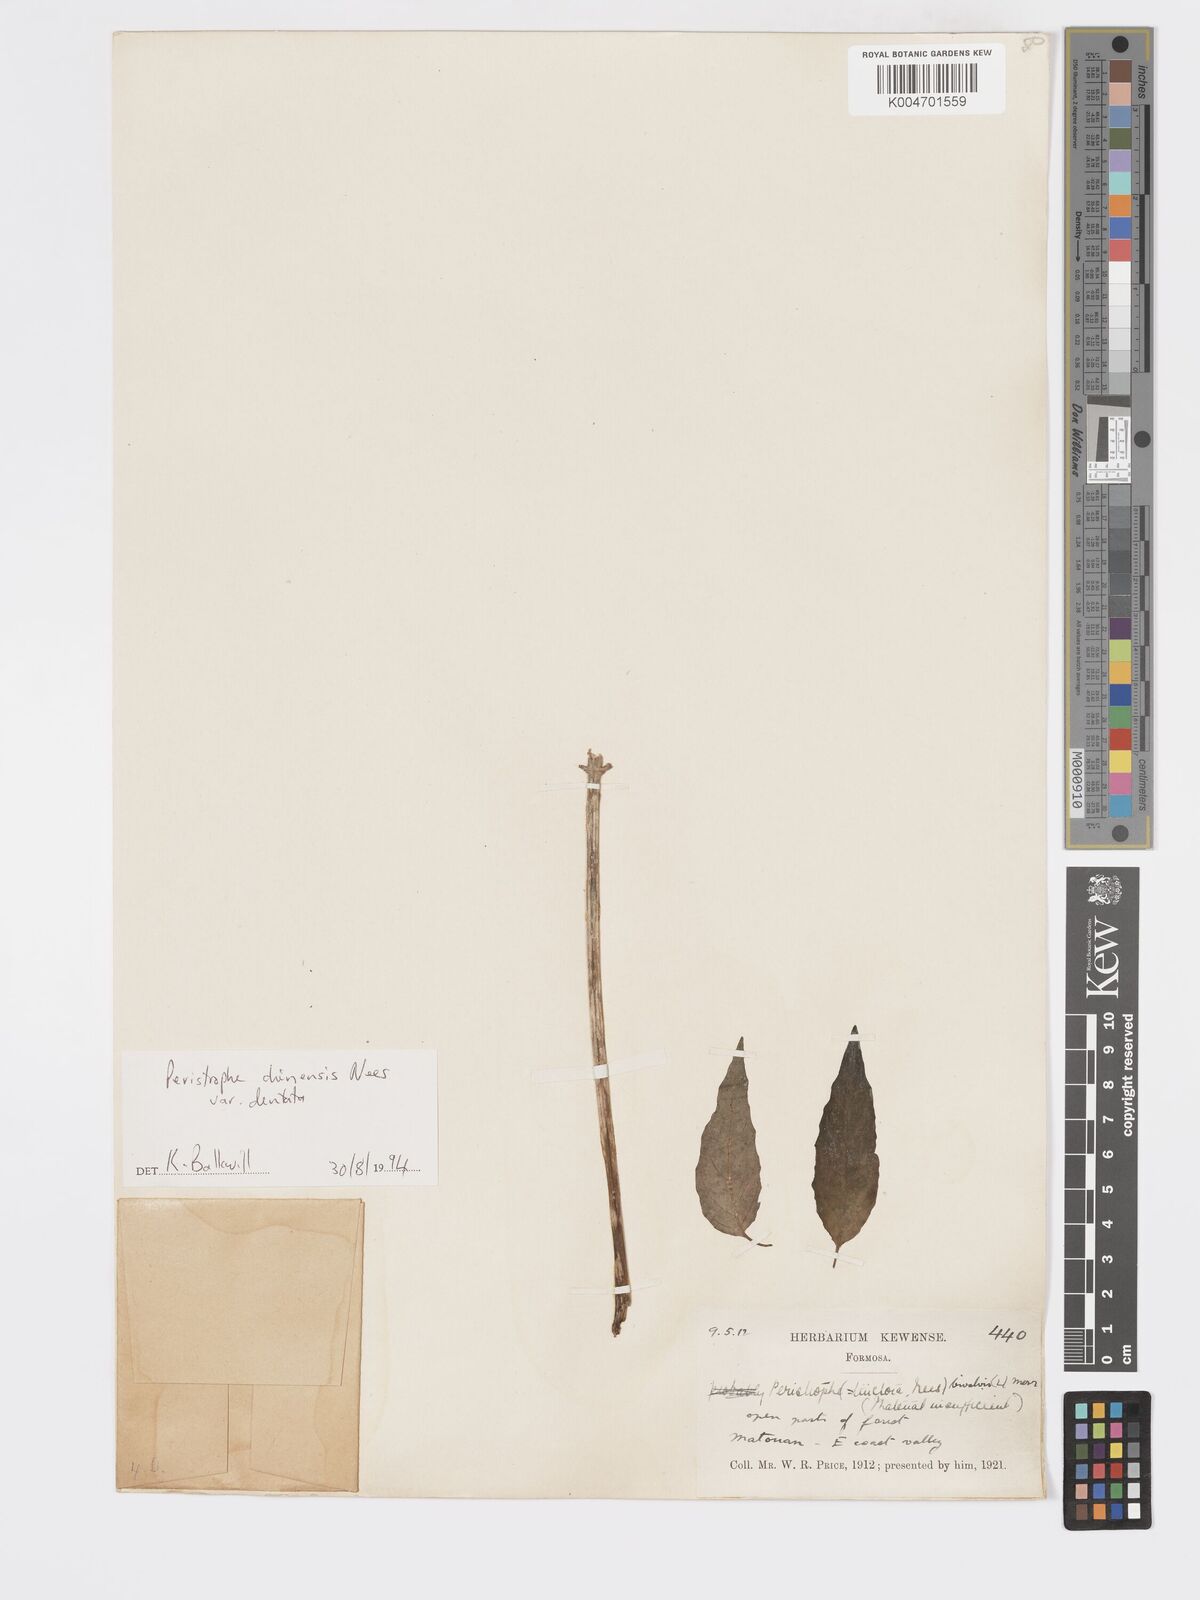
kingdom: Plantae
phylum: Tracheophyta
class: Magnoliopsida
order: Lamiales
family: Acanthaceae
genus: Dicliptera
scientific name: Dicliptera chinensis
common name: Chinese foldwing
